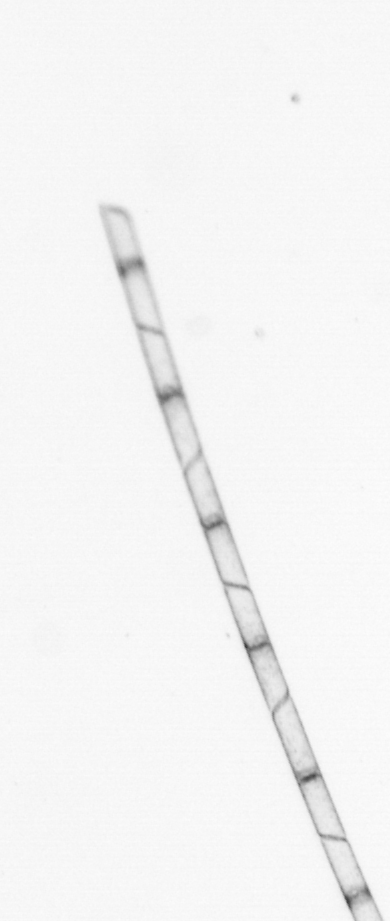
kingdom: Chromista
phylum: Ochrophyta
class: Bacillariophyceae
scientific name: Bacillariophyceae
